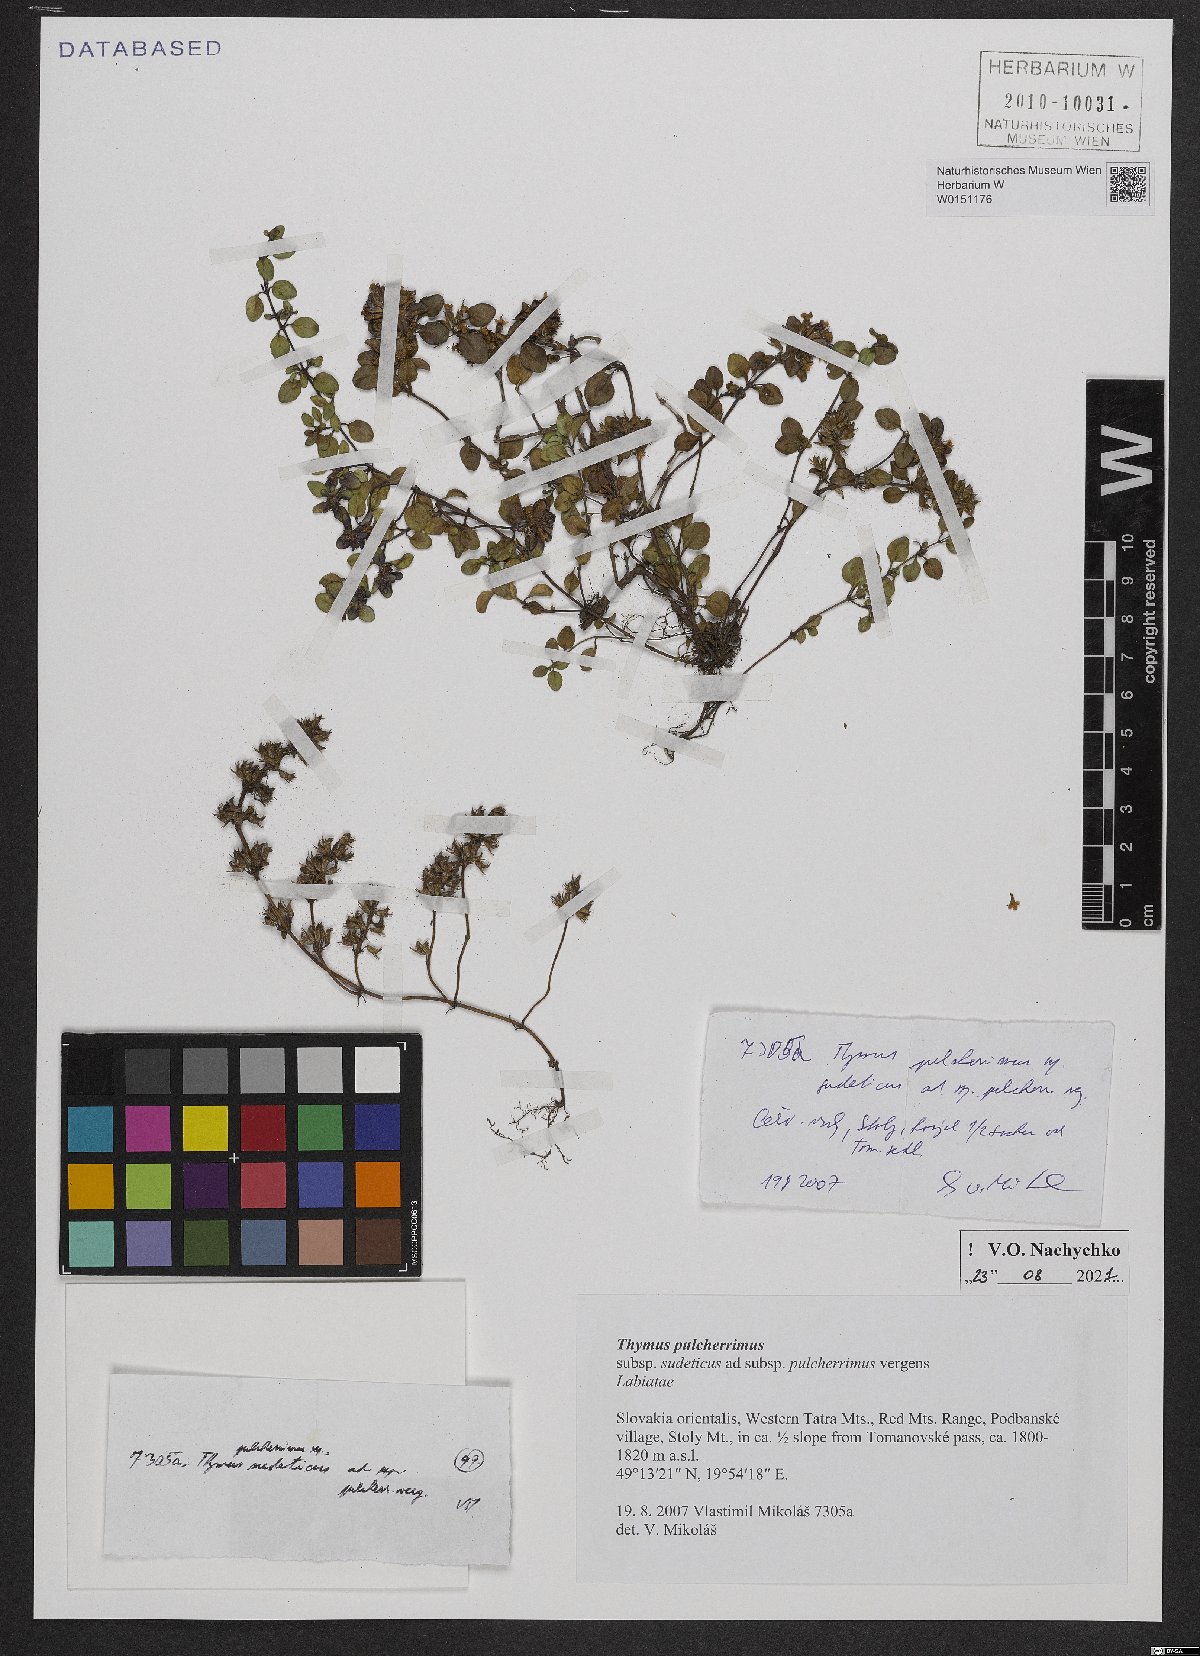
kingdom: Plantae
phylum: Tracheophyta
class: Magnoliopsida
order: Lamiales
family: Lamiaceae
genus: Thymus
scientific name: Thymus pulcherrimus
